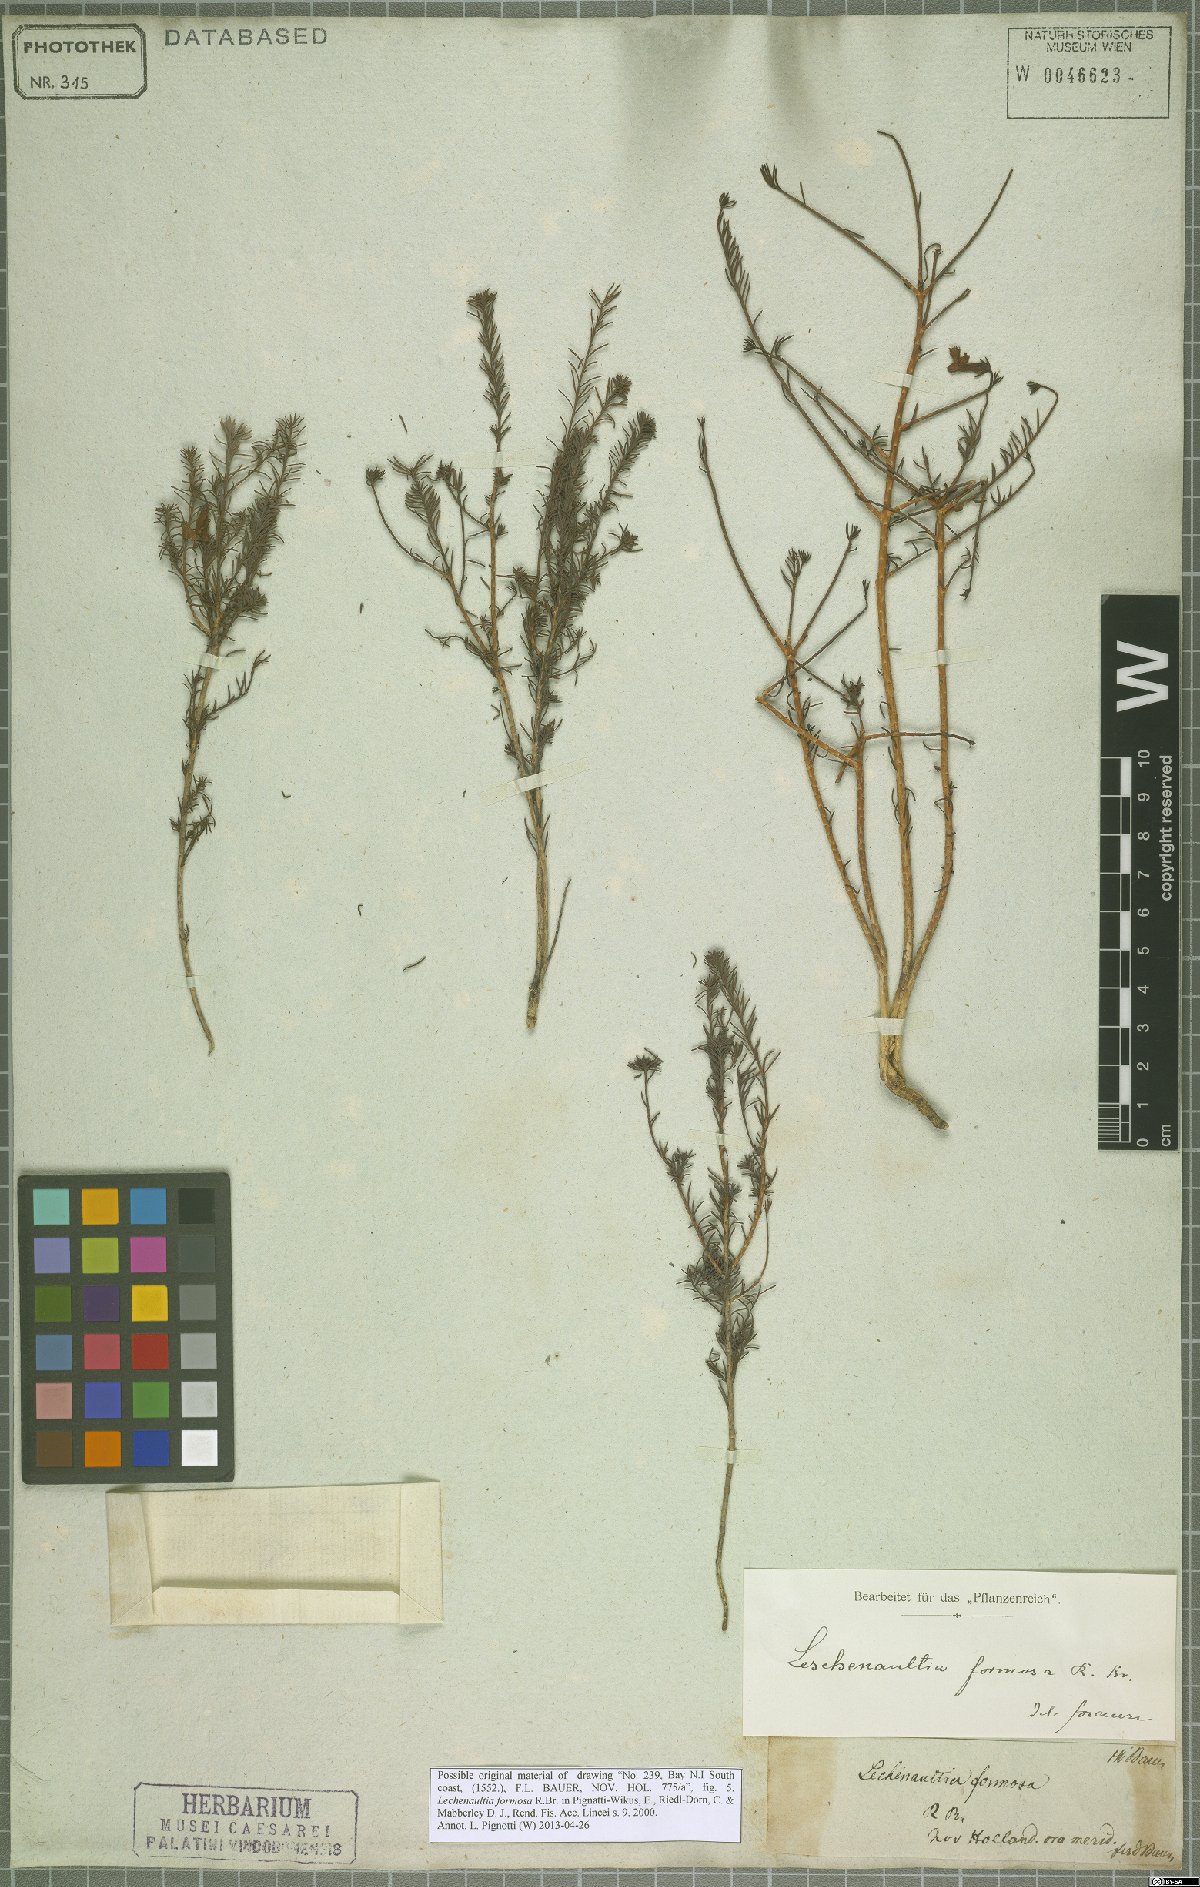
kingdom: Plantae
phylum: Tracheophyta
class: Magnoliopsida
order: Asterales
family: Goodeniaceae
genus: Lechenaultia
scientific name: Lechenaultia formosa
